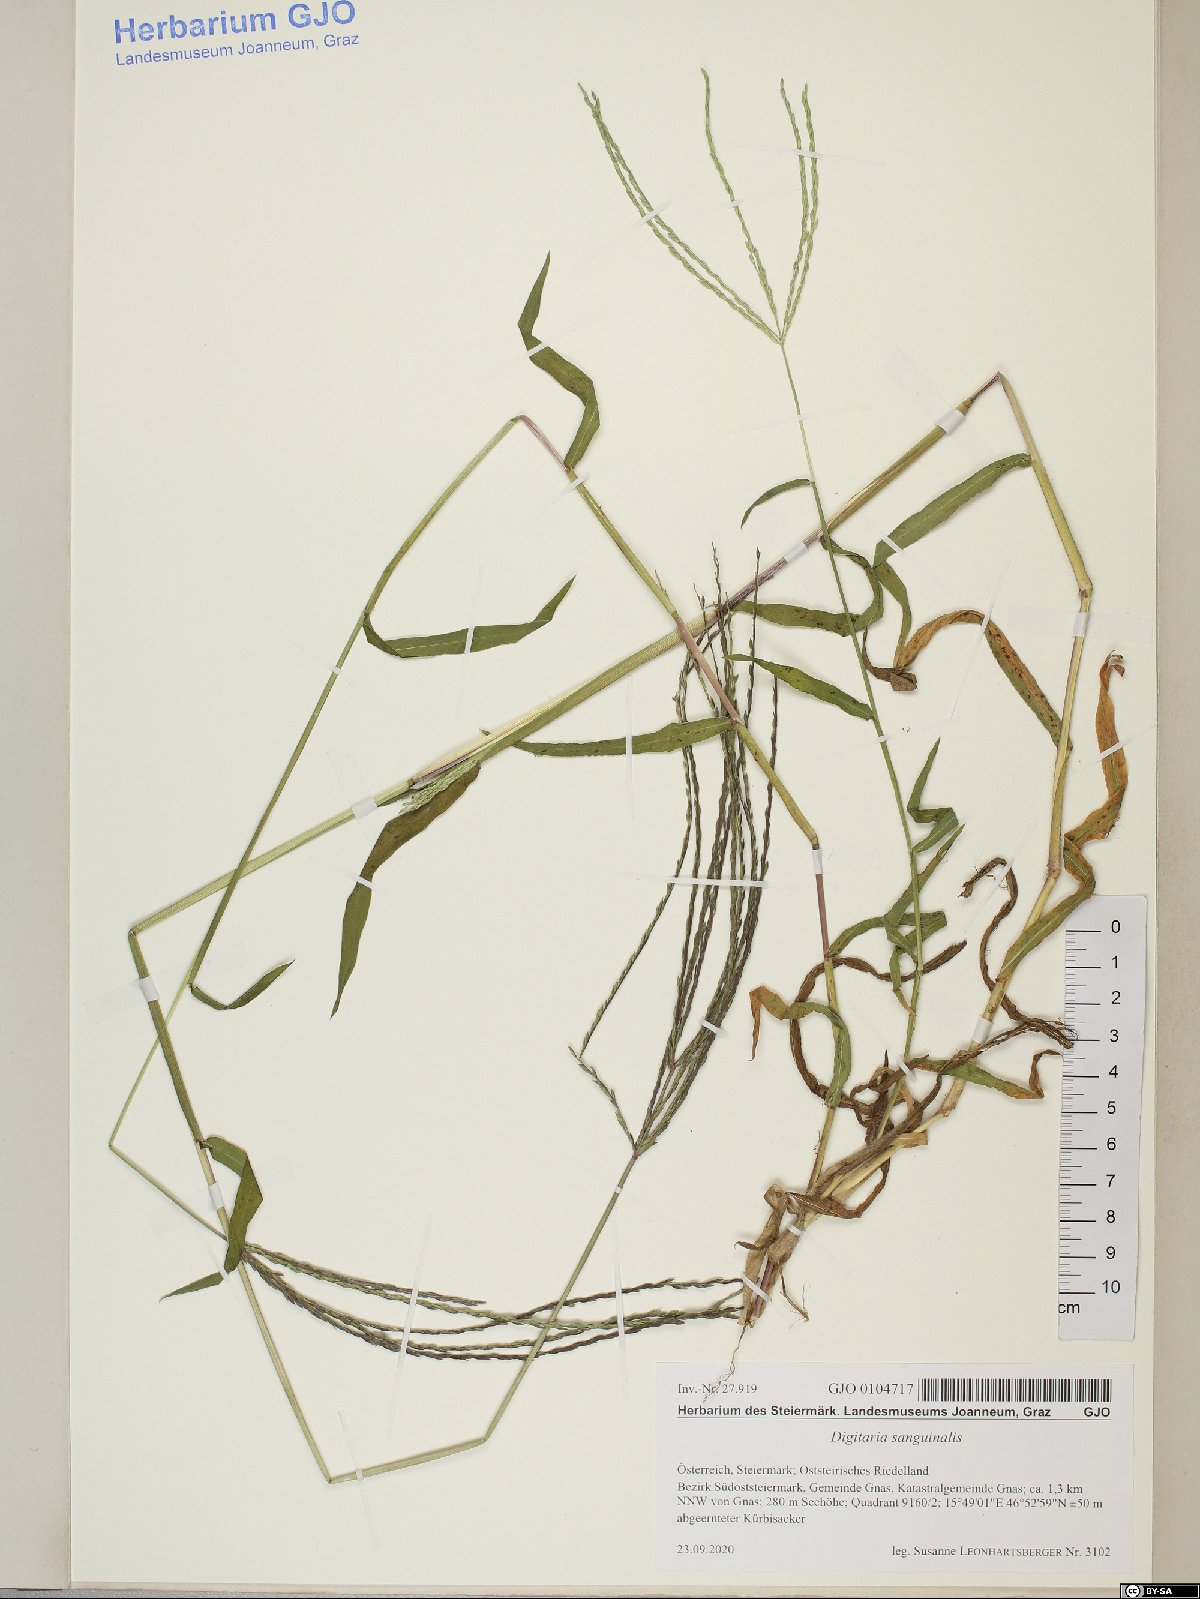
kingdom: Plantae
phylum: Tracheophyta
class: Liliopsida
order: Poales
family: Poaceae
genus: Digitaria
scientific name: Digitaria sanguinalis
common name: Hairy crabgrass
